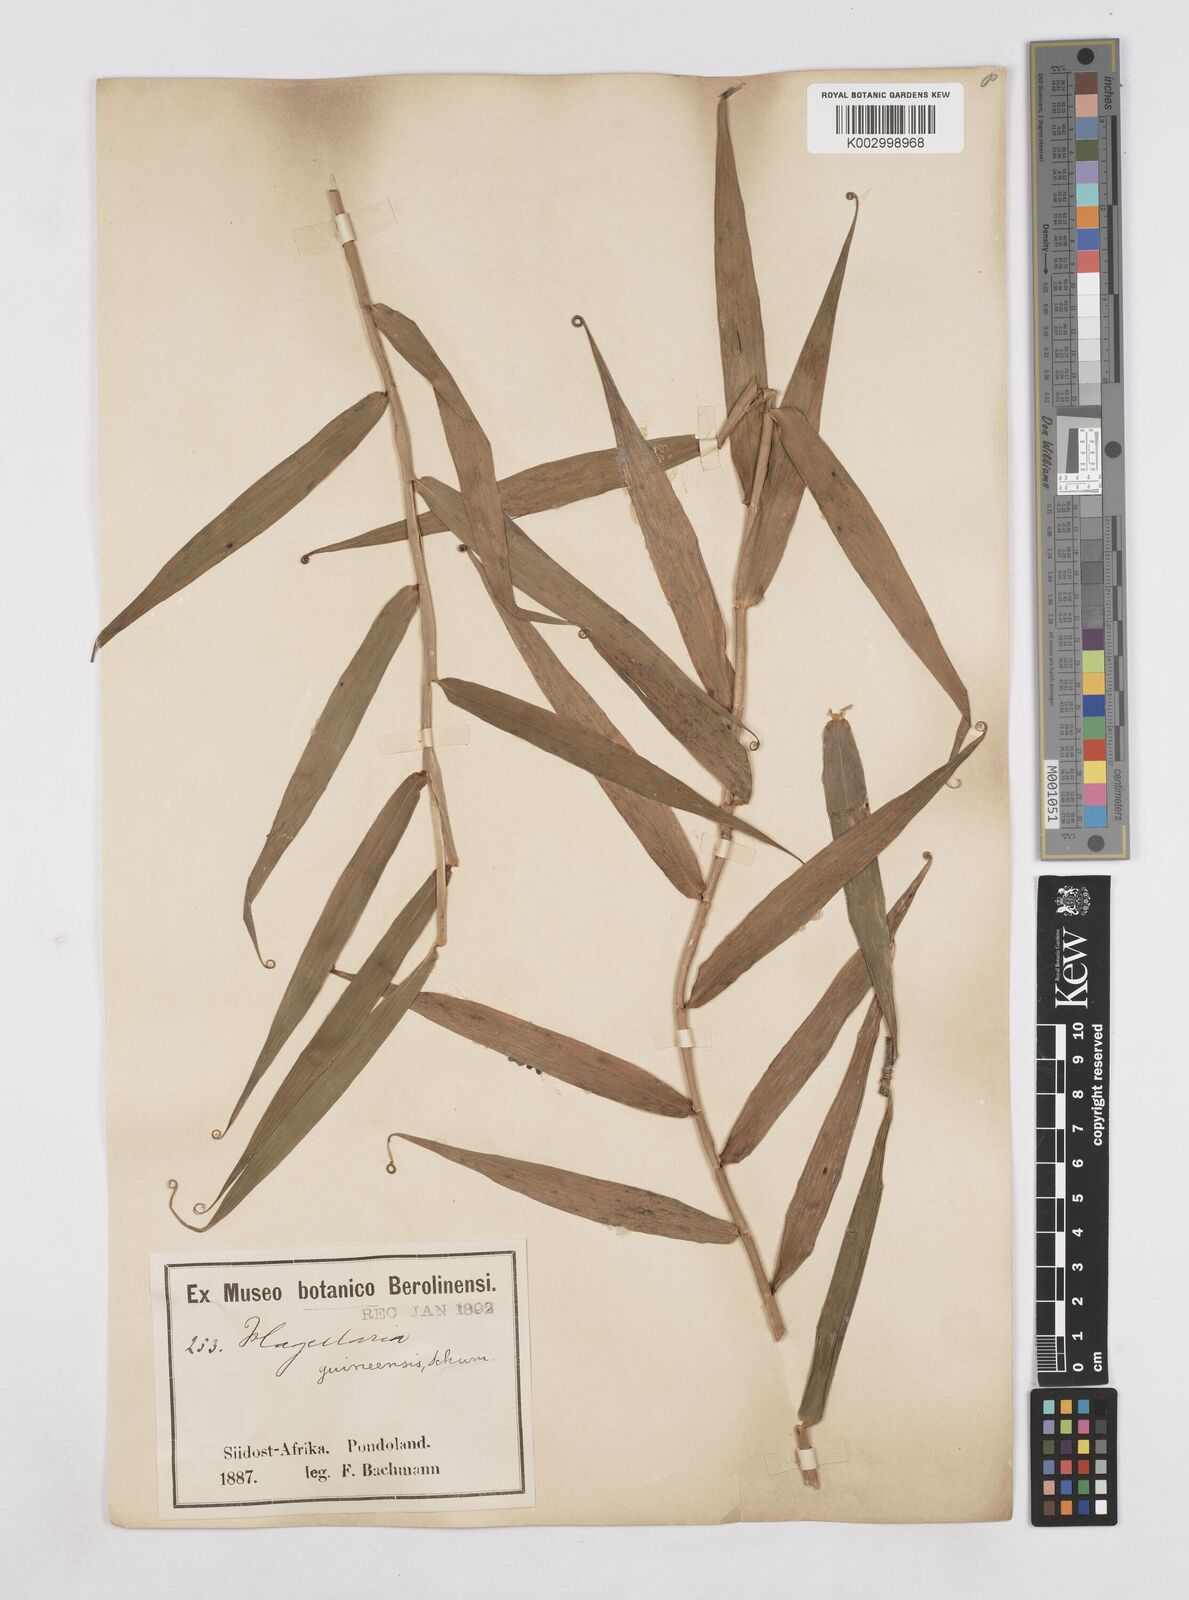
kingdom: Plantae
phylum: Tracheophyta
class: Liliopsida
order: Poales
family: Flagellariaceae
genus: Flagellaria
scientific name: Flagellaria guineensis
